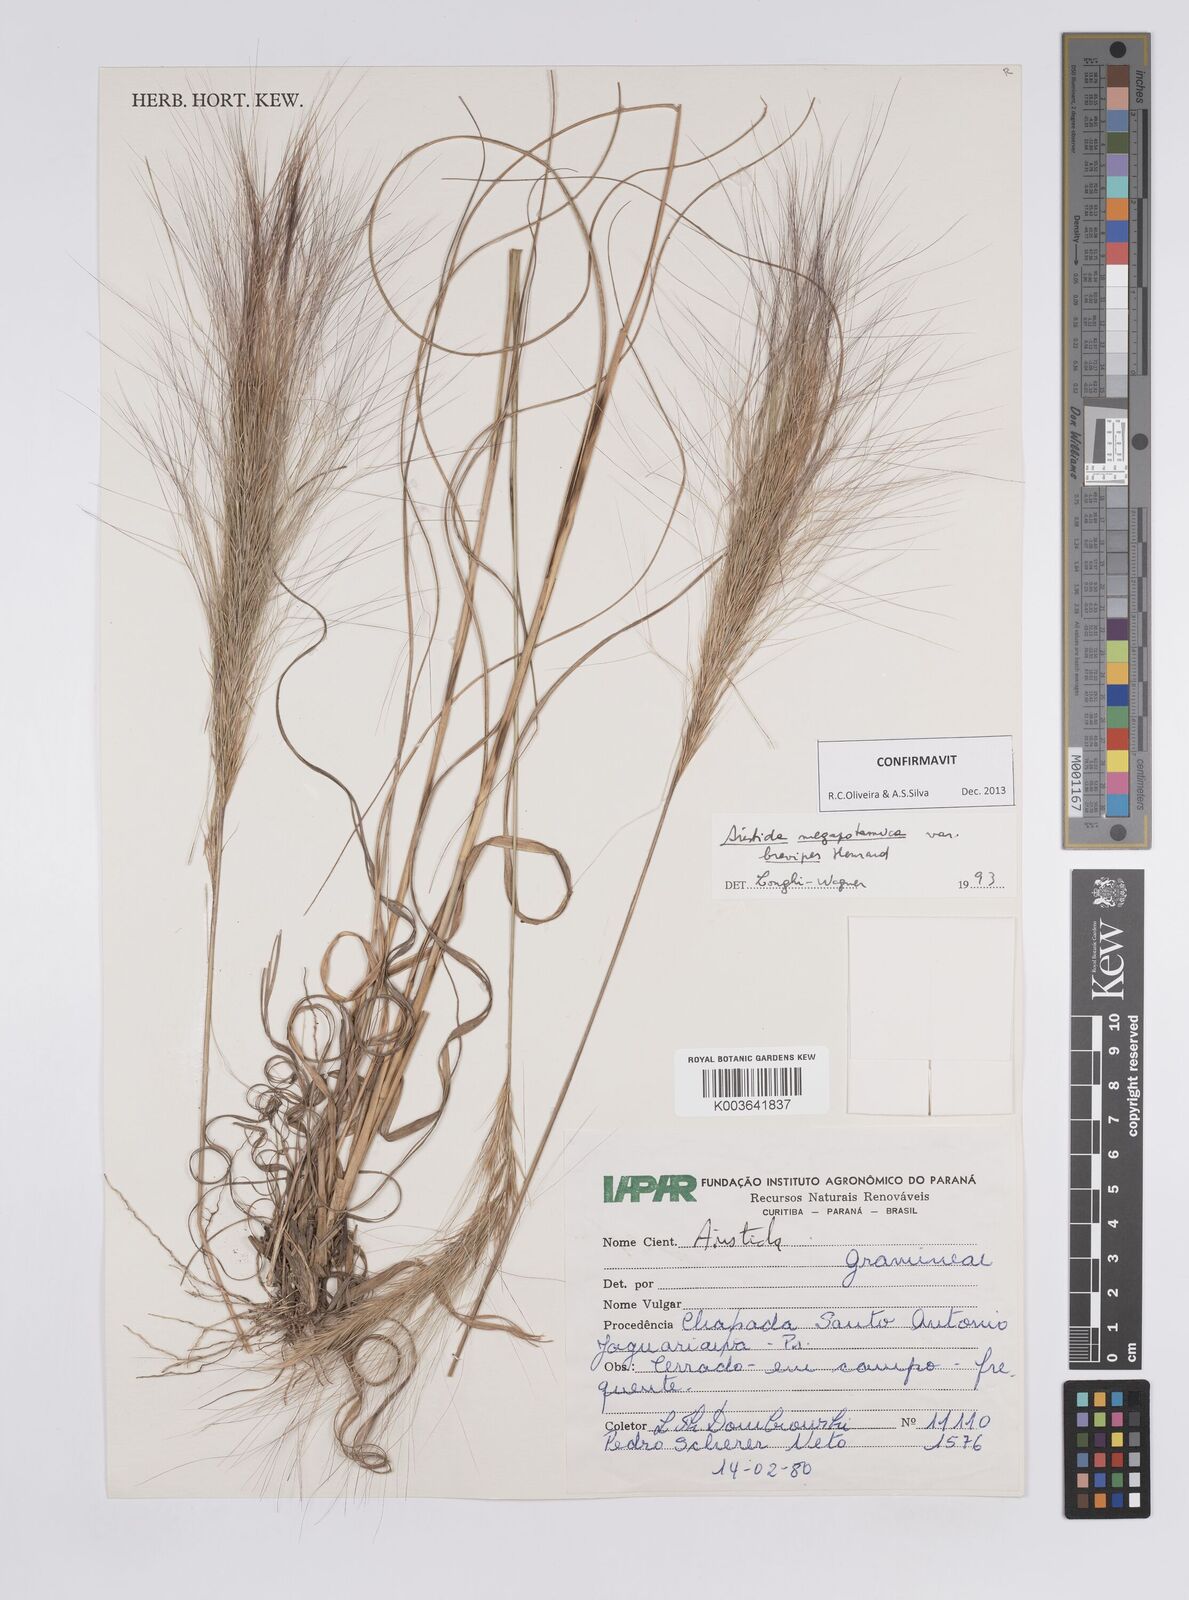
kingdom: Plantae
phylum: Tracheophyta
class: Liliopsida
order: Poales
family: Poaceae
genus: Aristida
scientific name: Aristida megapotamica
